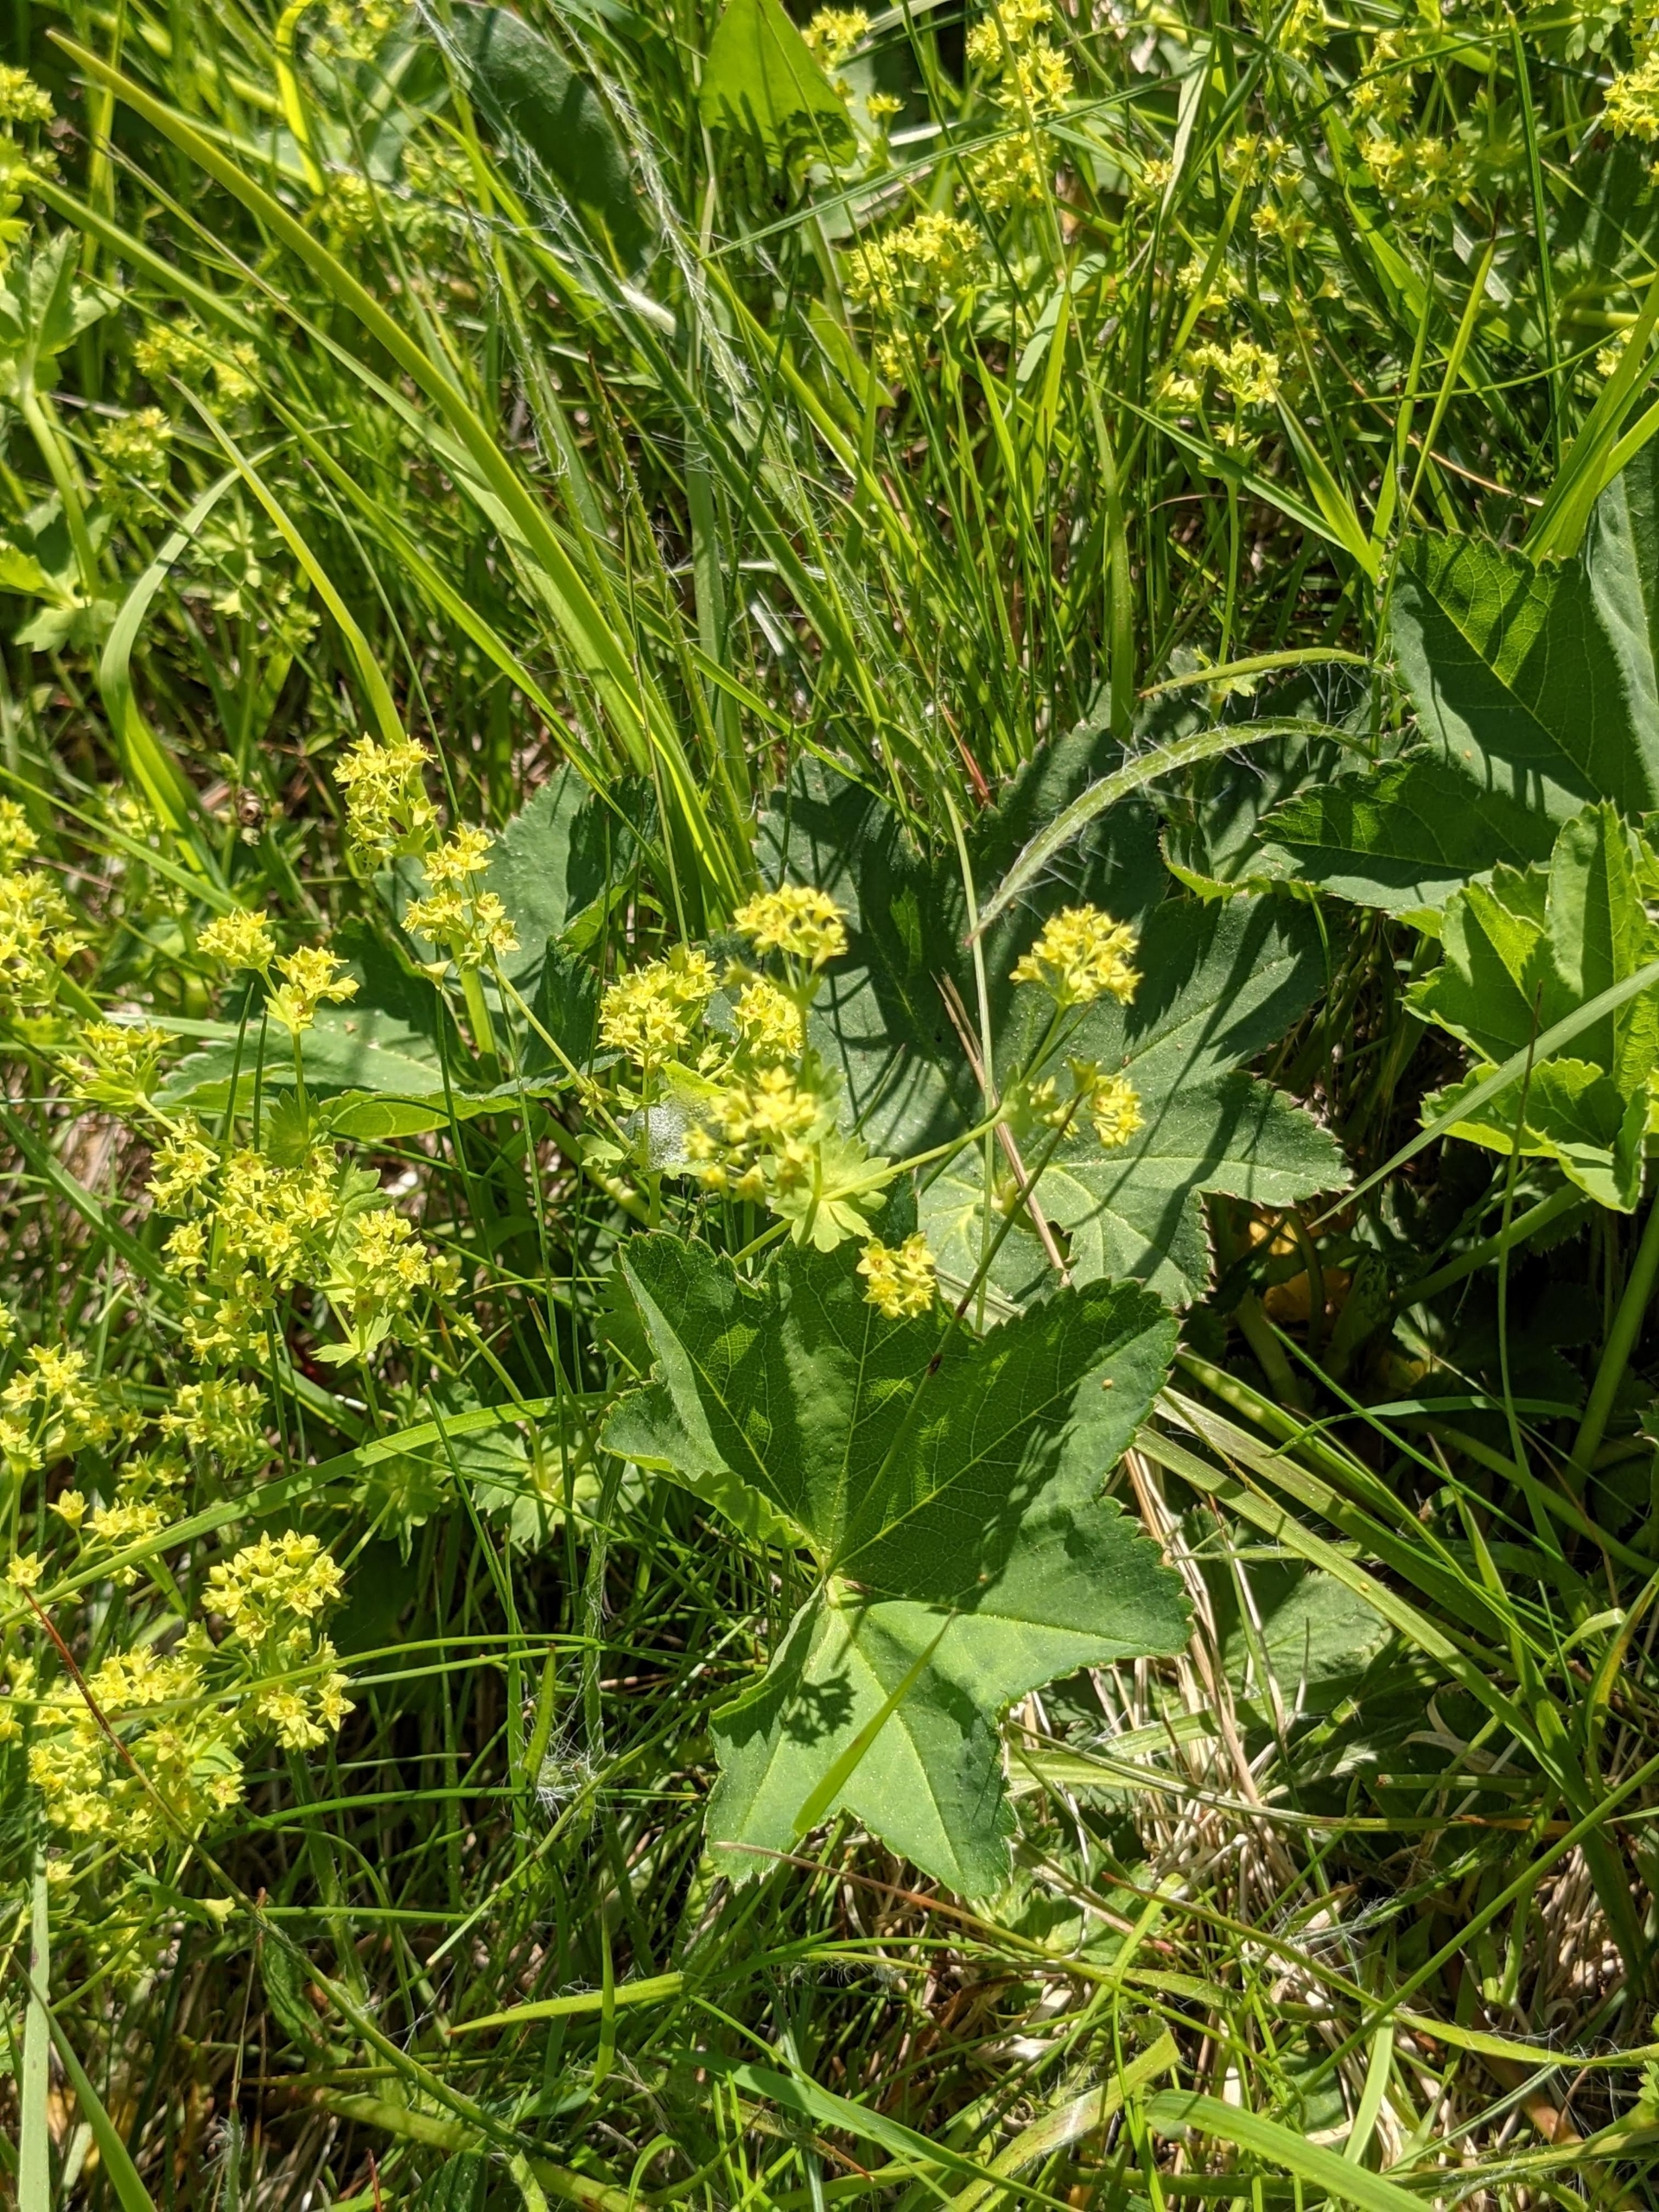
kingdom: Plantae
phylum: Tracheophyta
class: Magnoliopsida
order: Rosales
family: Rosaceae
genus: Alchemilla
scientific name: Alchemilla glabra
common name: Glat løvefod
